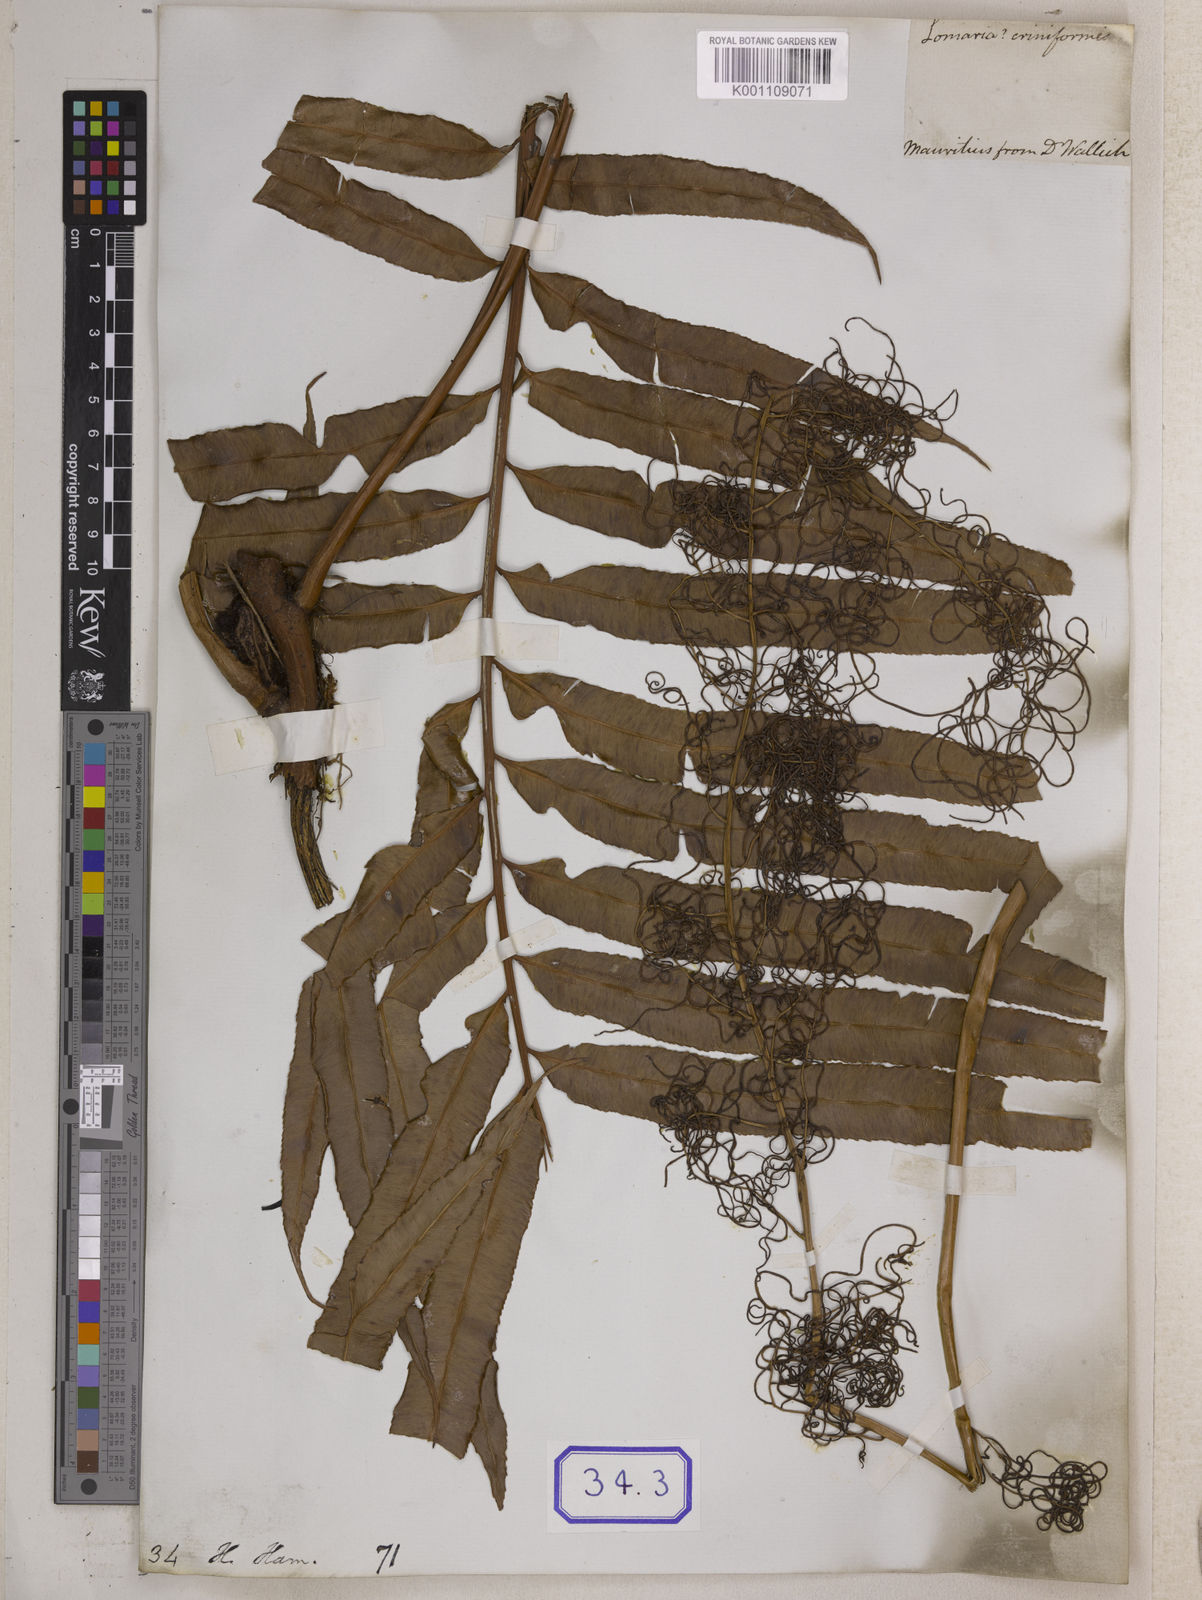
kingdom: Plantae
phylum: Tracheophyta
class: Polypodiopsida
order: Polypodiales
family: Lomariopsidaceae
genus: Lomariopsis
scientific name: Lomariopsis pollicina
